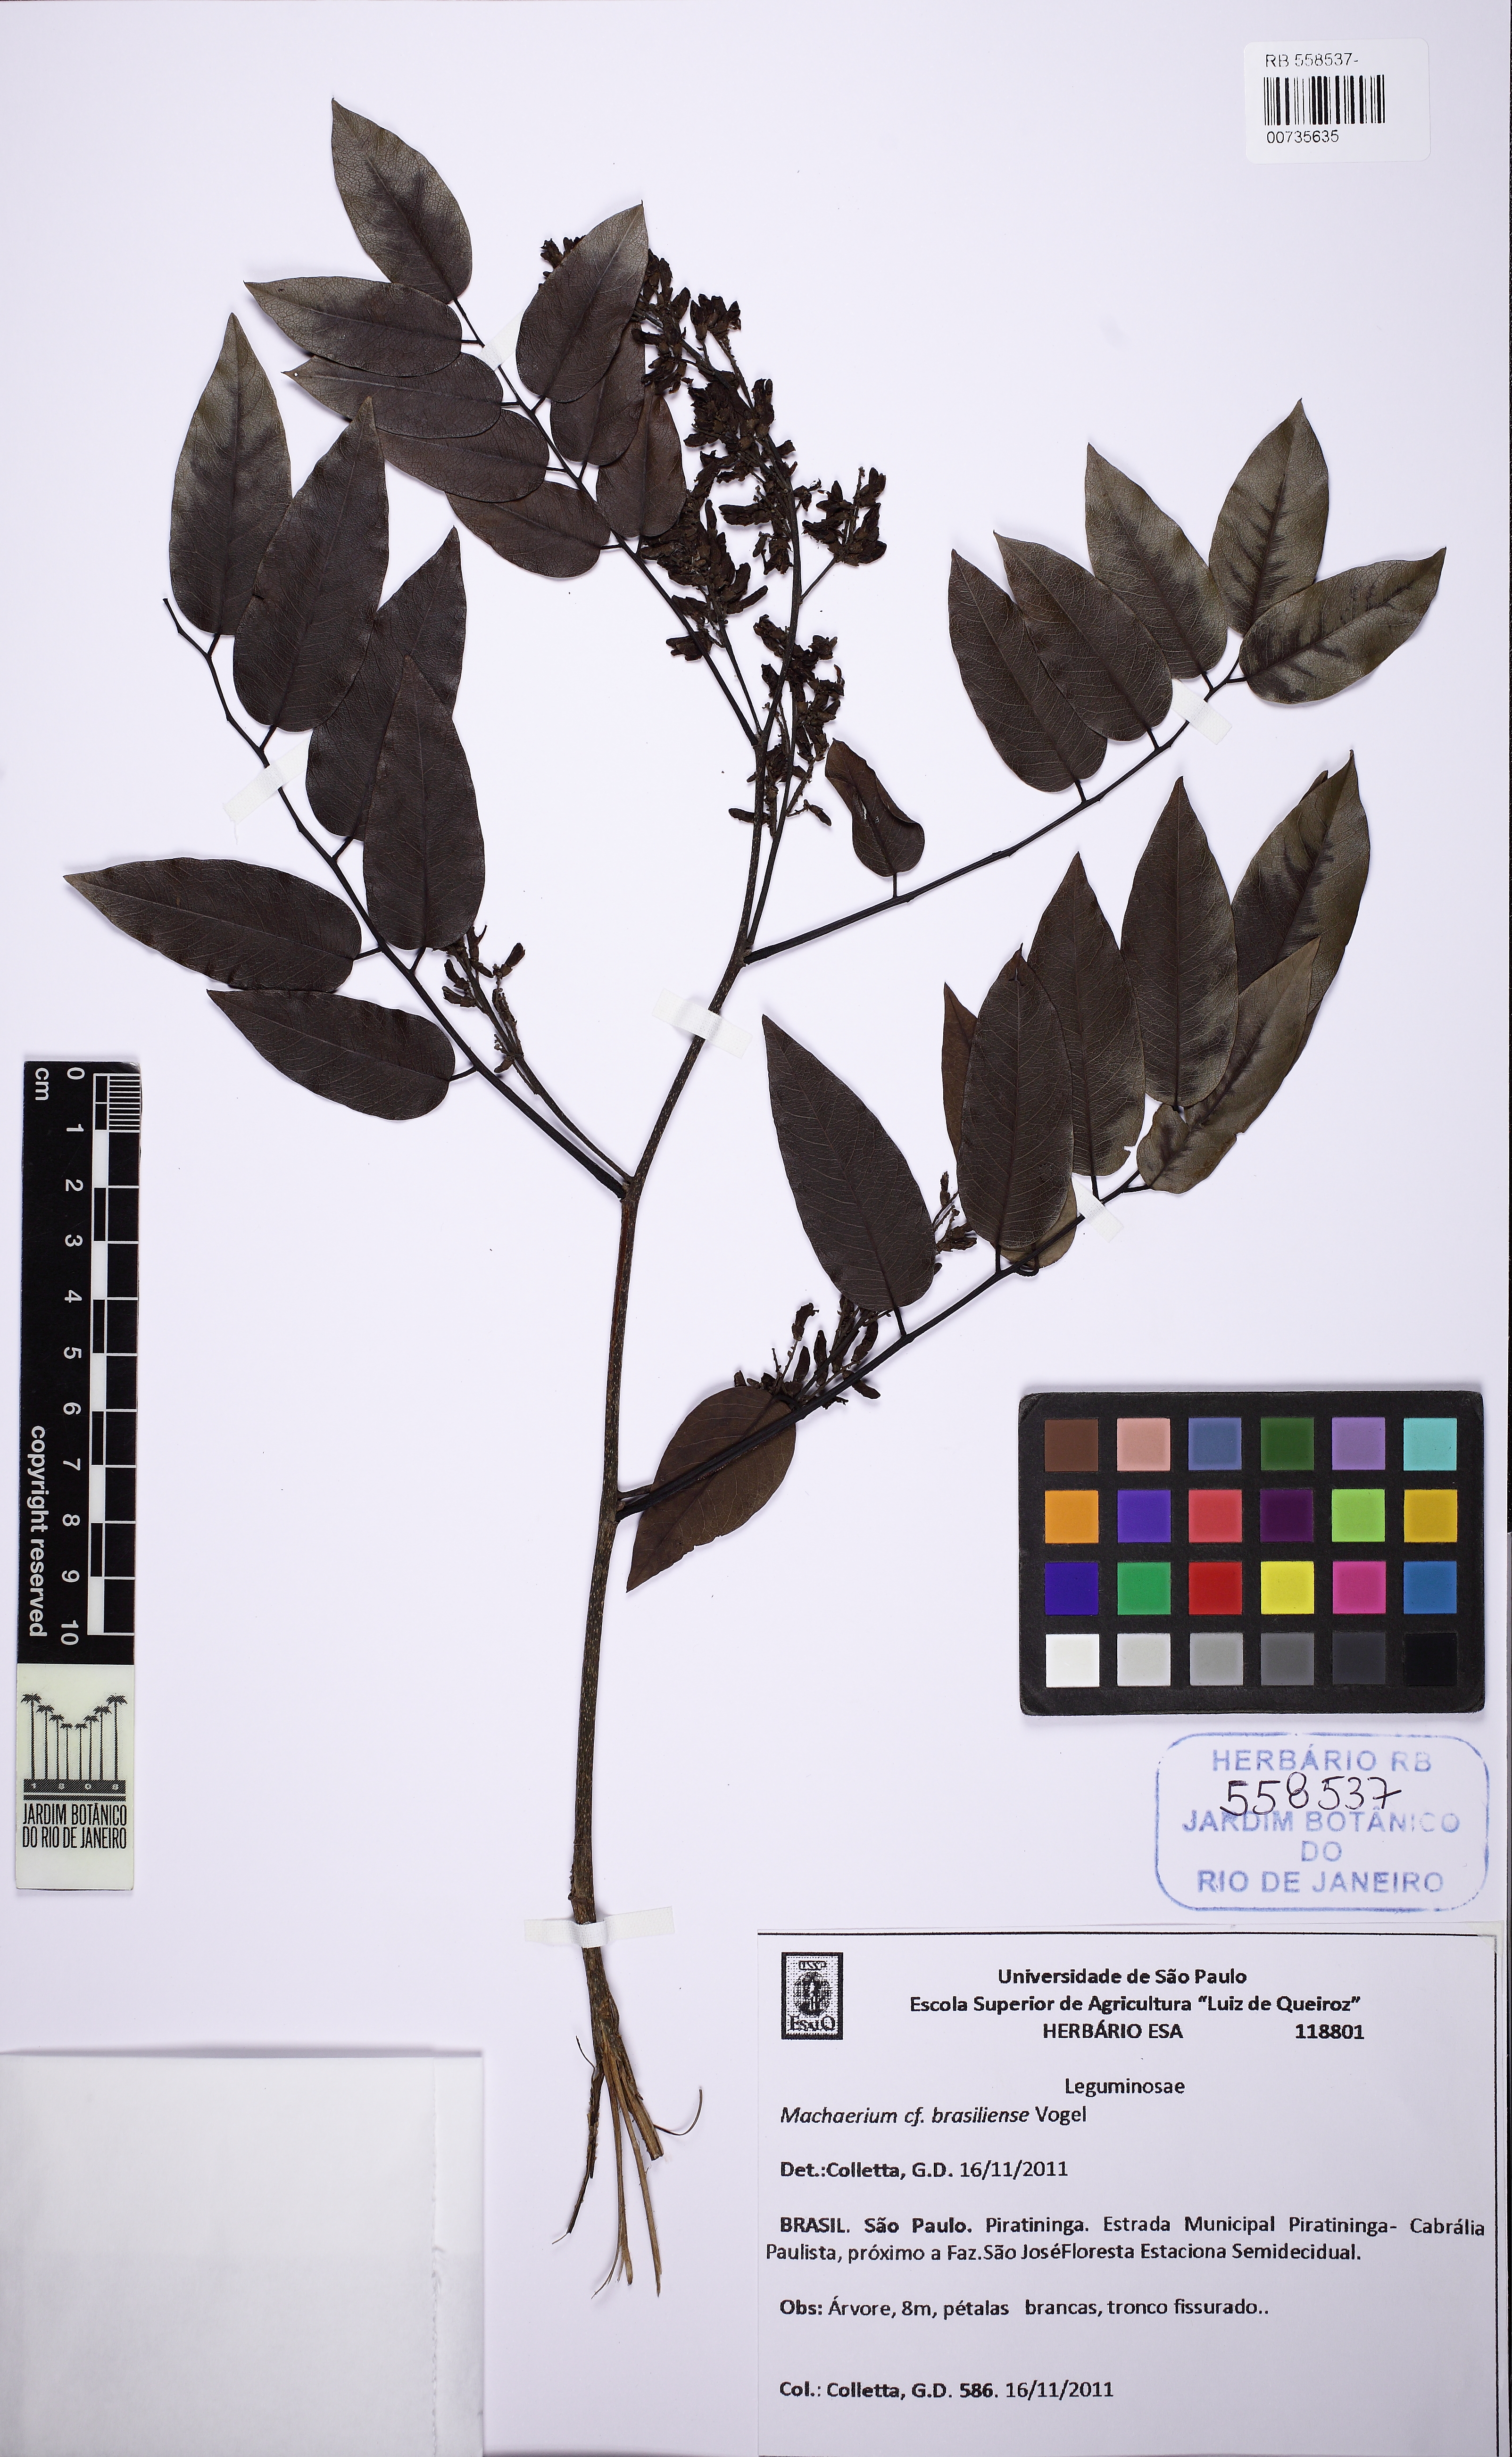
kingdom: Plantae
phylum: Tracheophyta
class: Magnoliopsida
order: Fabales
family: Fabaceae
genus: Machaerium
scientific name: Machaerium brasiliense
